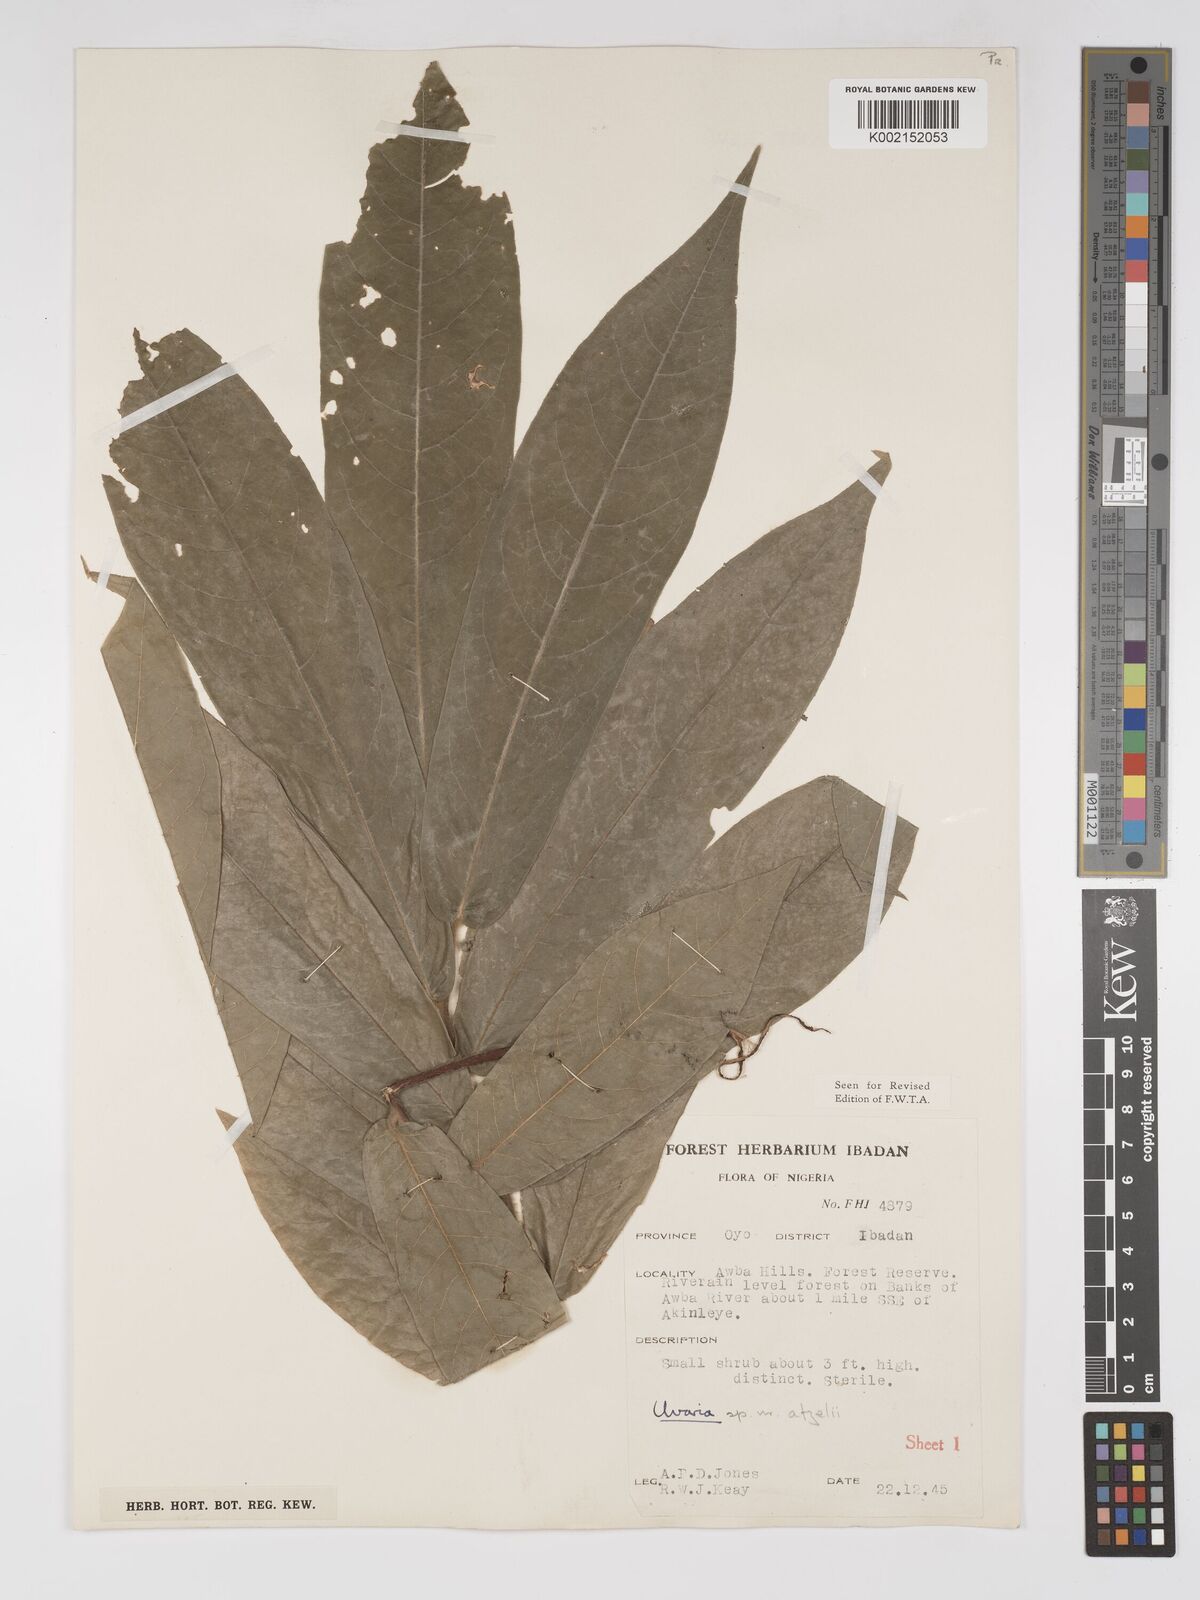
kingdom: Plantae
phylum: Tracheophyta
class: Magnoliopsida
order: Magnoliales
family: Annonaceae
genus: Uvaria
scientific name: Uvaria afzelii
